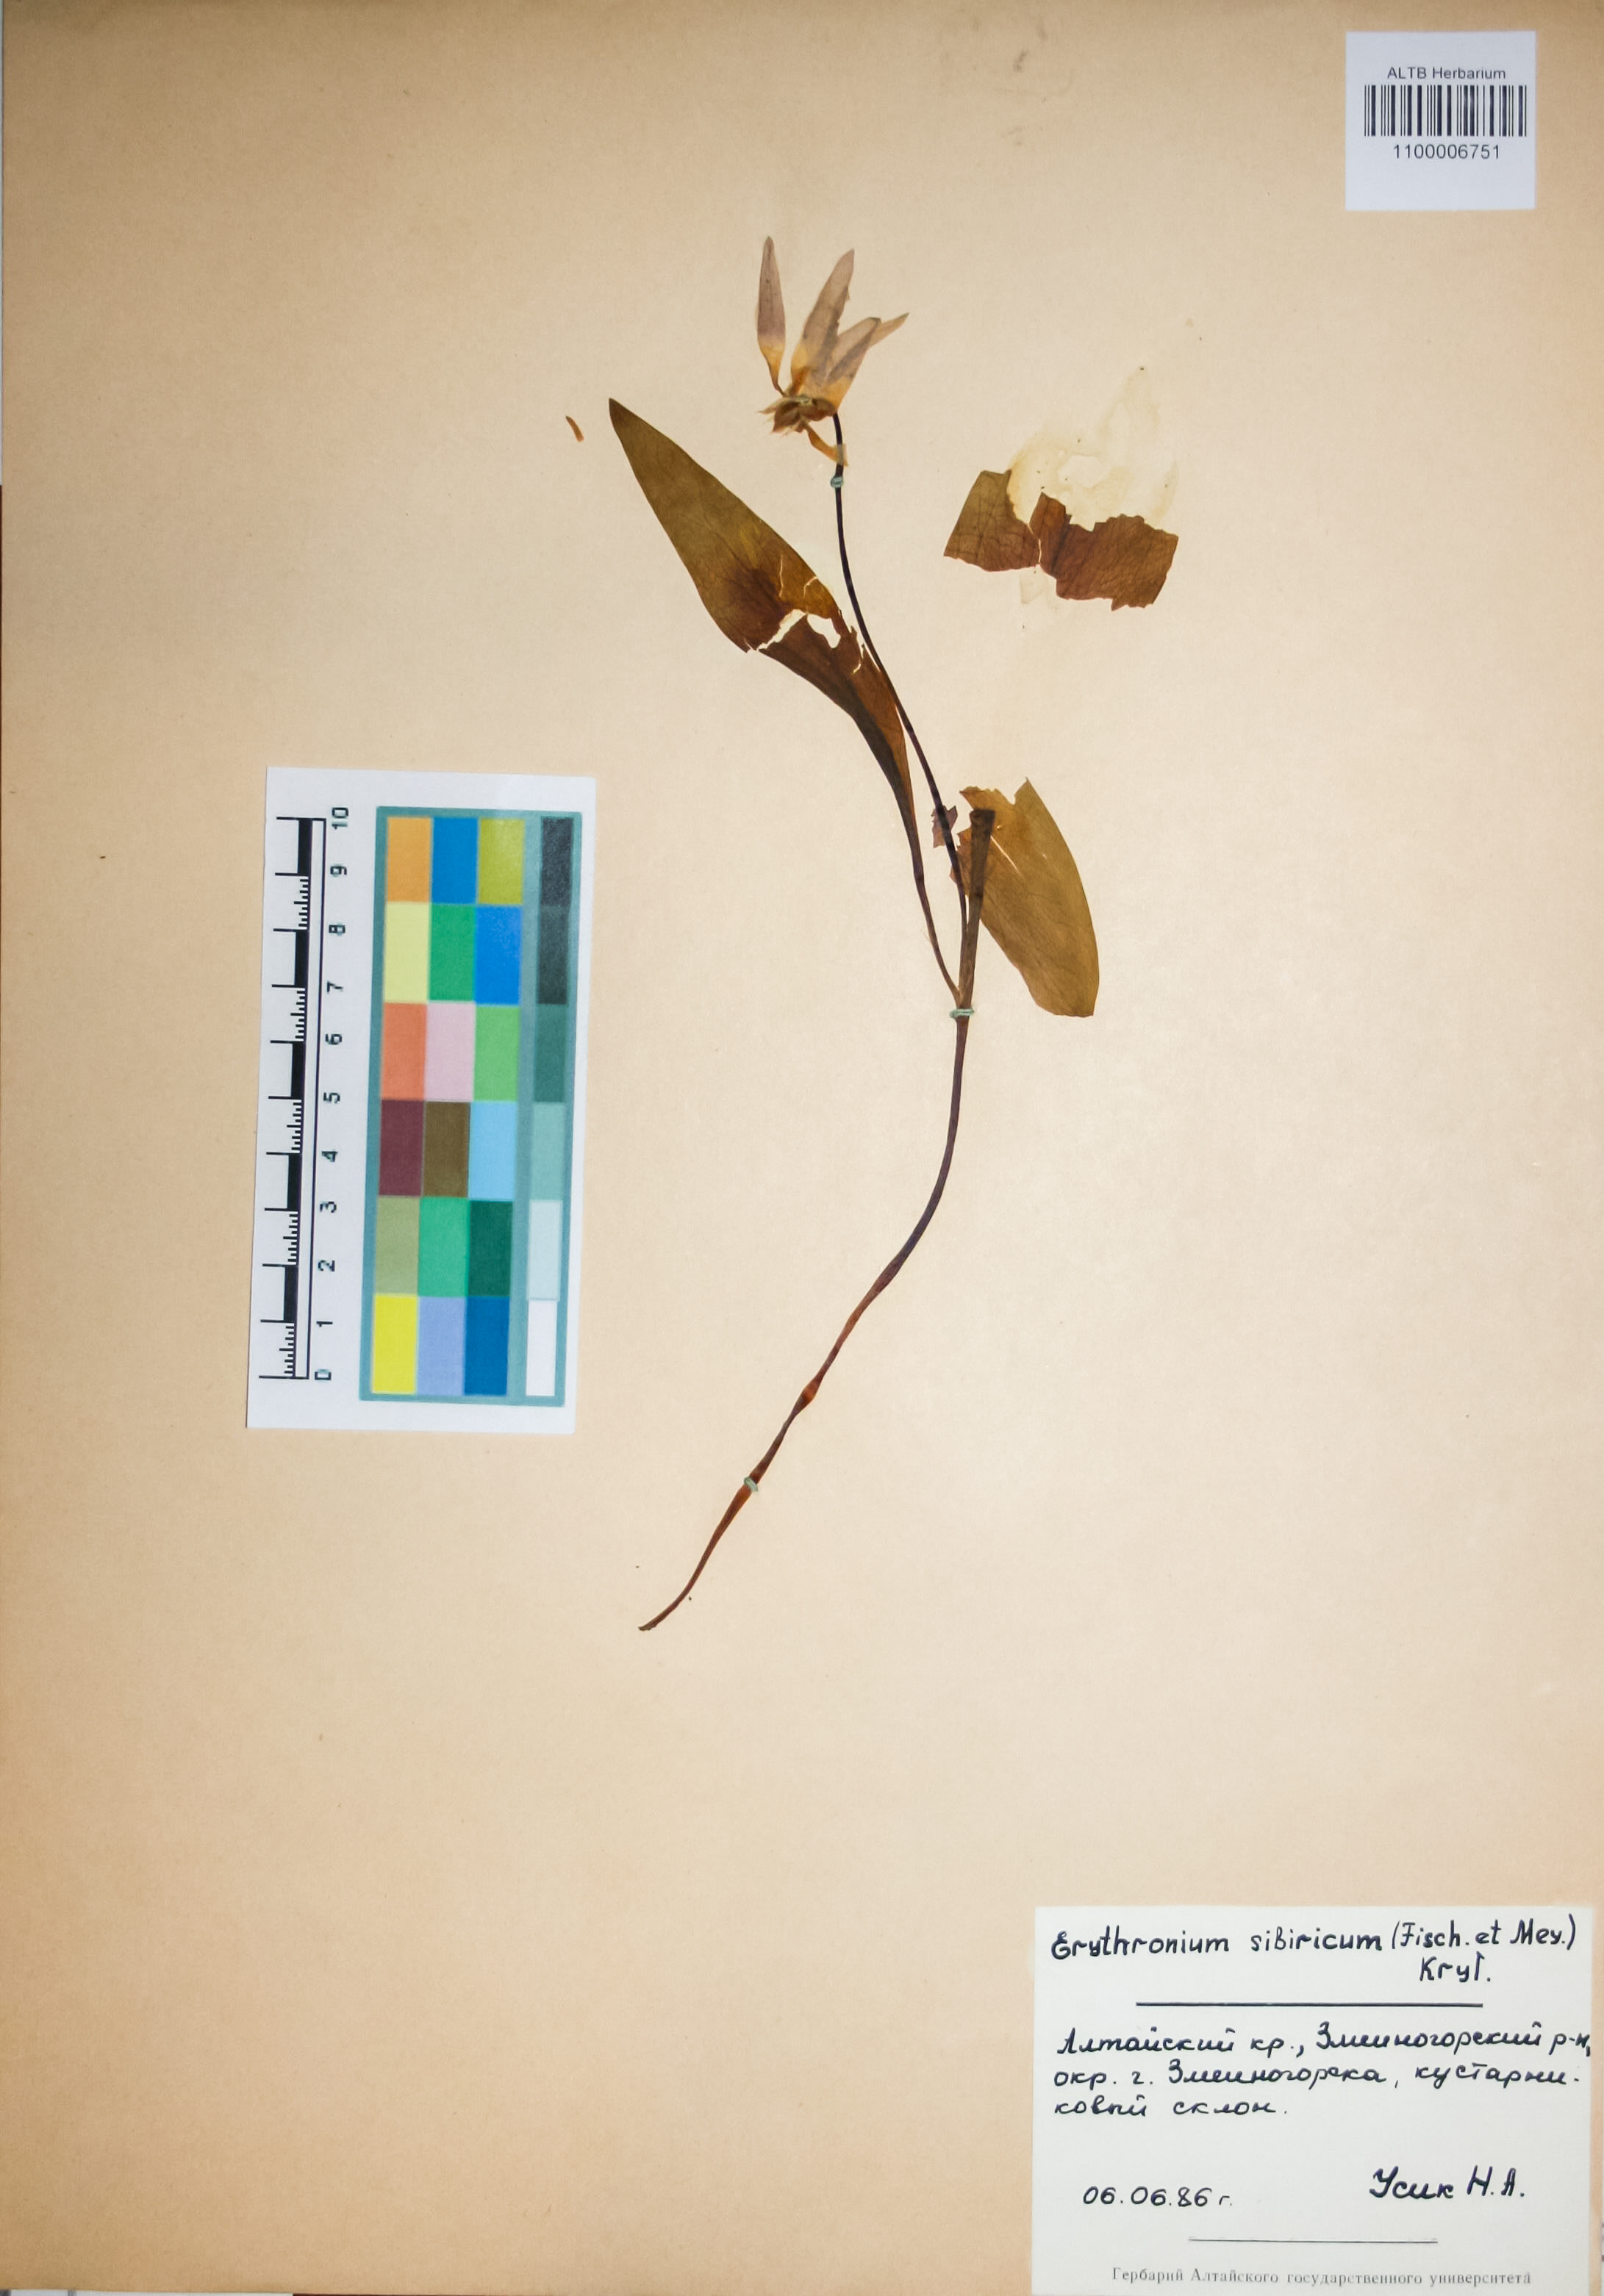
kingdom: Plantae
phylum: Tracheophyta
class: Liliopsida
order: Liliales
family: Liliaceae
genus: Erythronium
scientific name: Erythronium sibiricum
